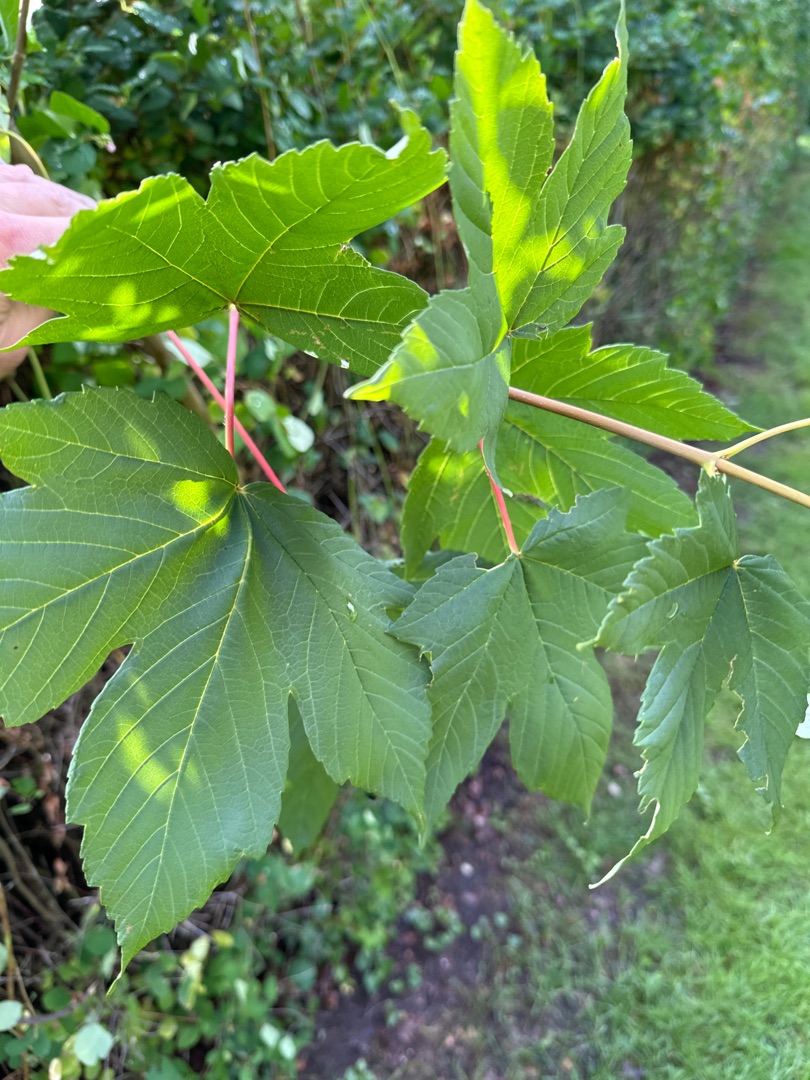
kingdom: Plantae
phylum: Tracheophyta
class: Magnoliopsida
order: Sapindales
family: Sapindaceae
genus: Acer
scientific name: Acer pseudoplatanus
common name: Ahorn
